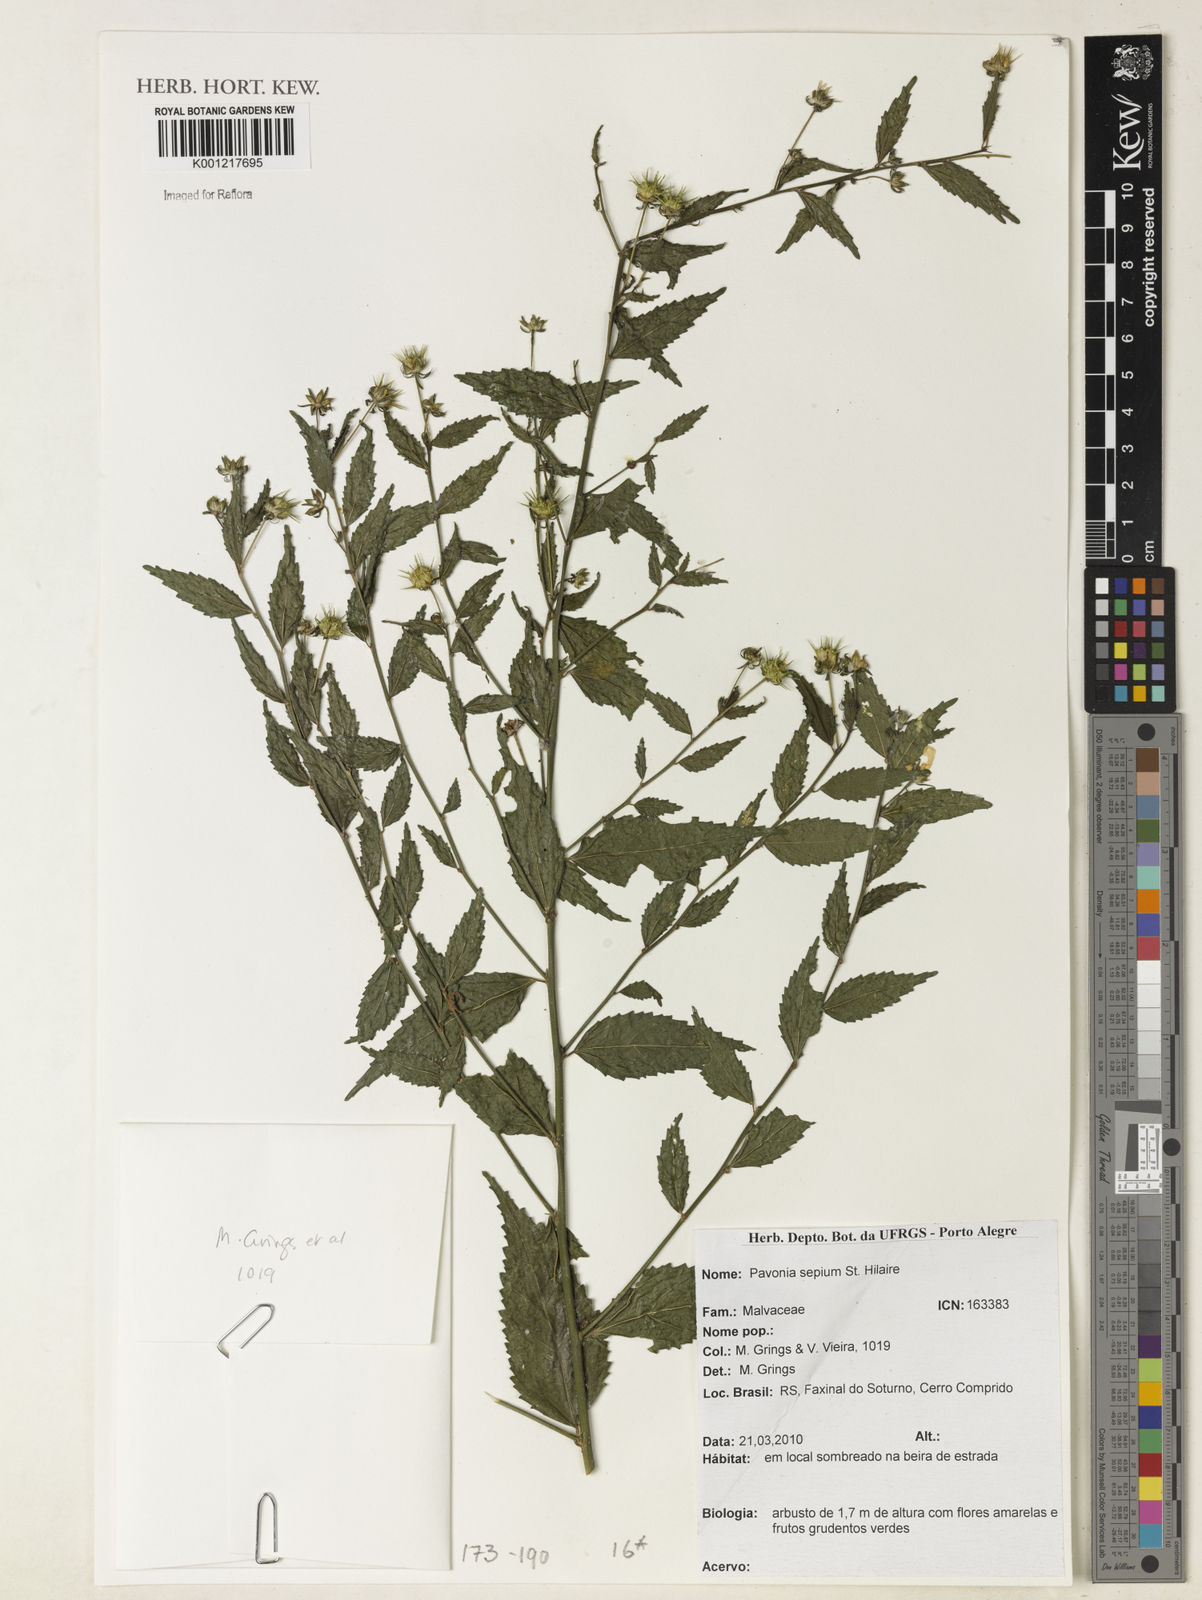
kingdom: Plantae
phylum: Tracheophyta
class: Magnoliopsida
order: Malvales
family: Malvaceae
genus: Pavonia
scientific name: Pavonia sepium
